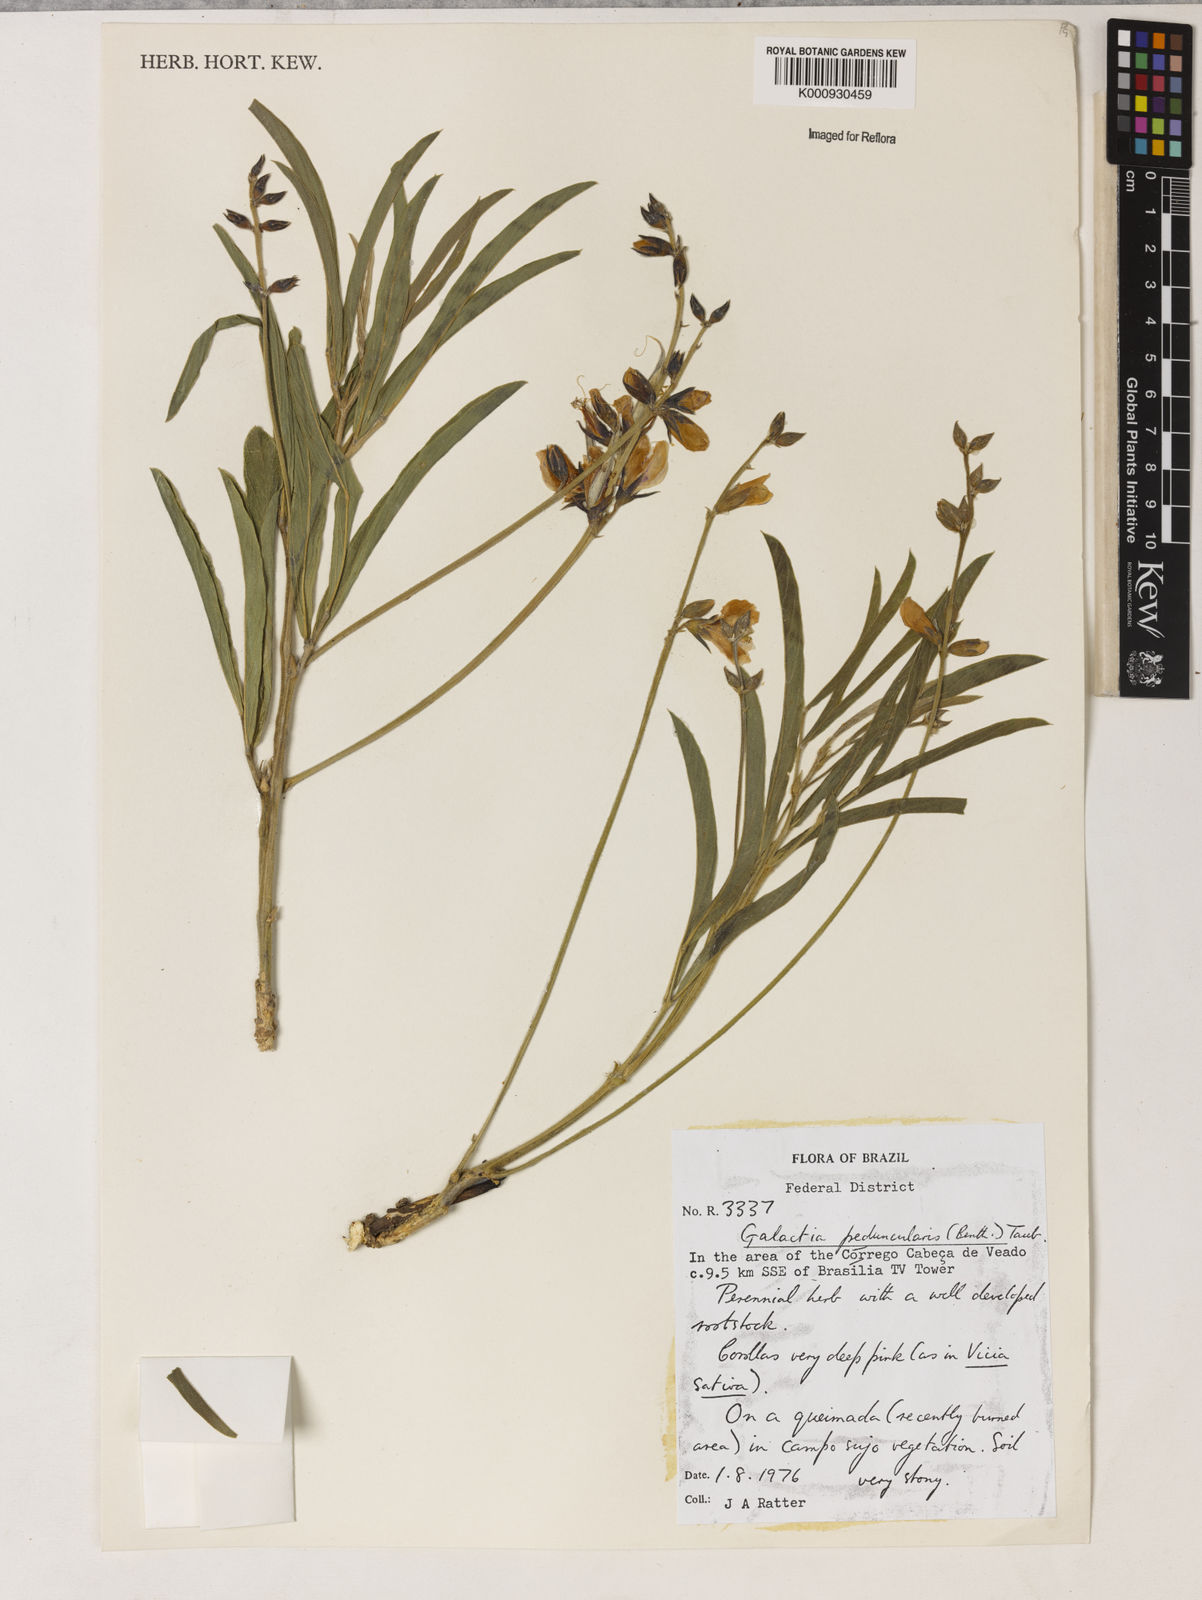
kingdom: Plantae
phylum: Tracheophyta
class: Magnoliopsida
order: Fabales
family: Fabaceae
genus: Galactia
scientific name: Galactia
